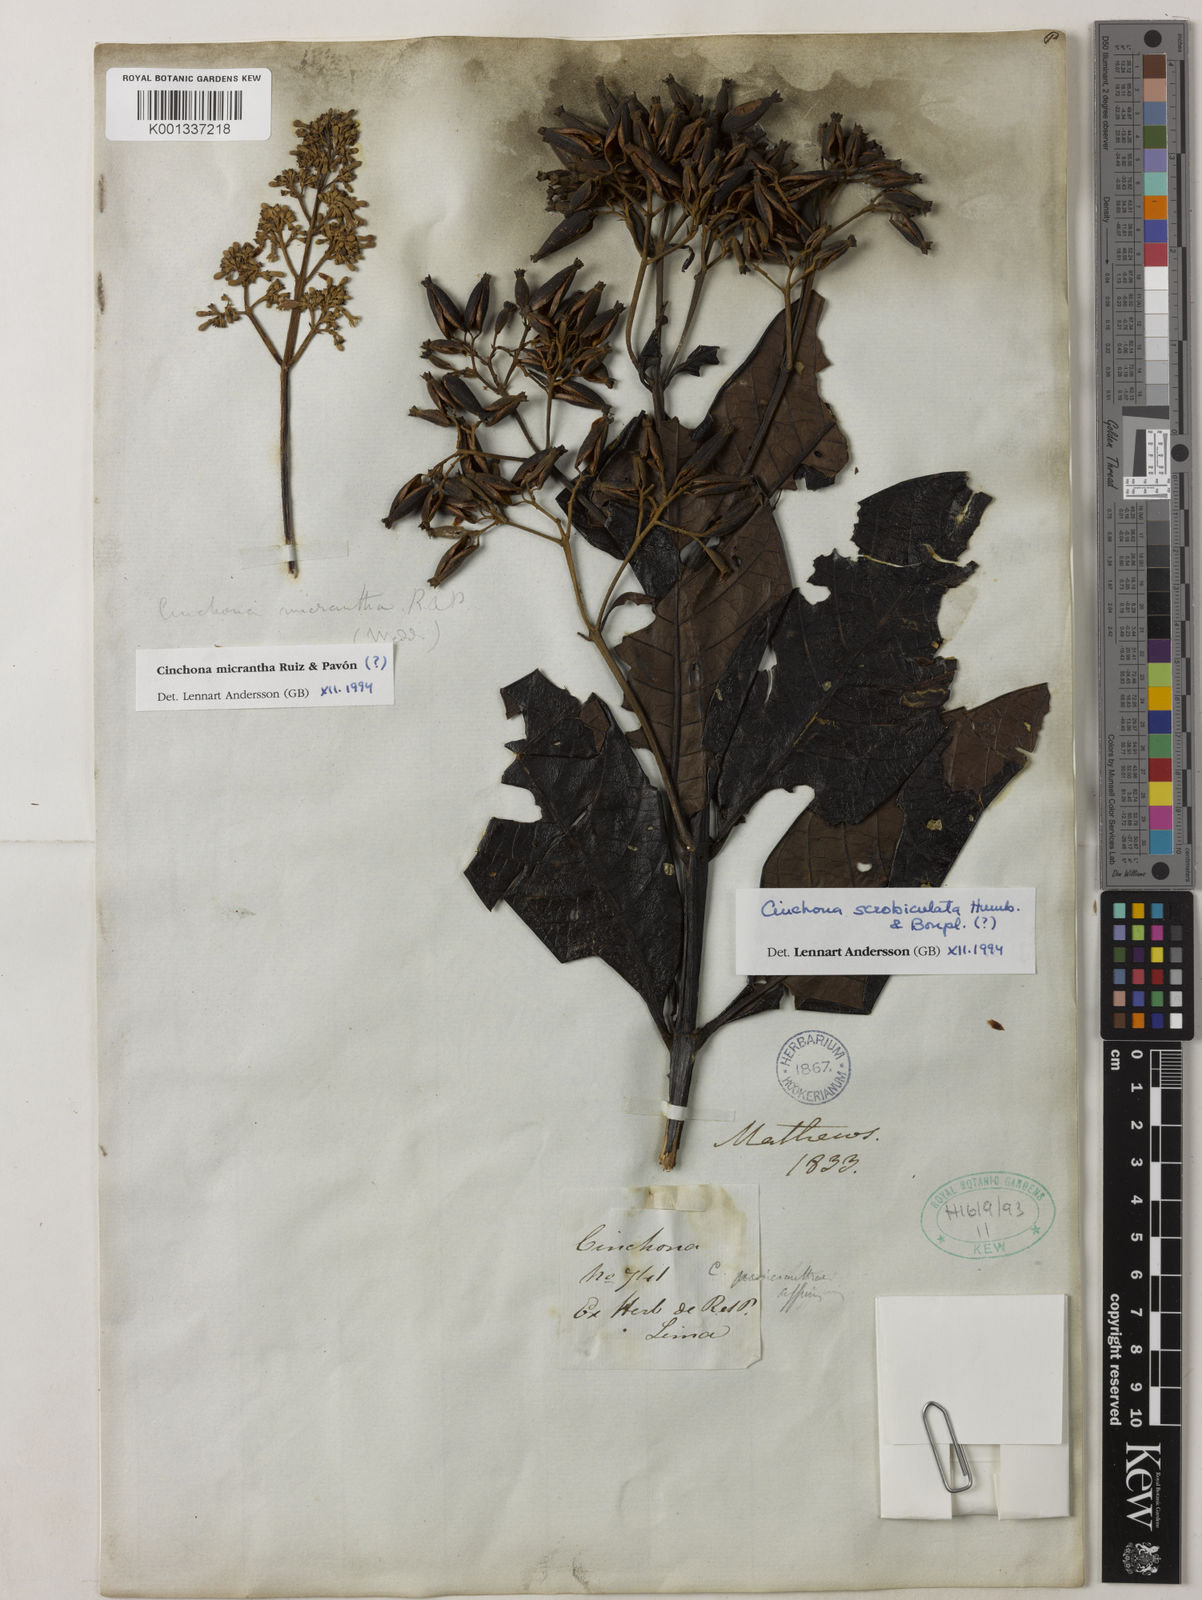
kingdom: Plantae
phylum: Tracheophyta
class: Magnoliopsida
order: Gentianales
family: Rubiaceae
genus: Cinchona
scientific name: Cinchona scrobiculata
